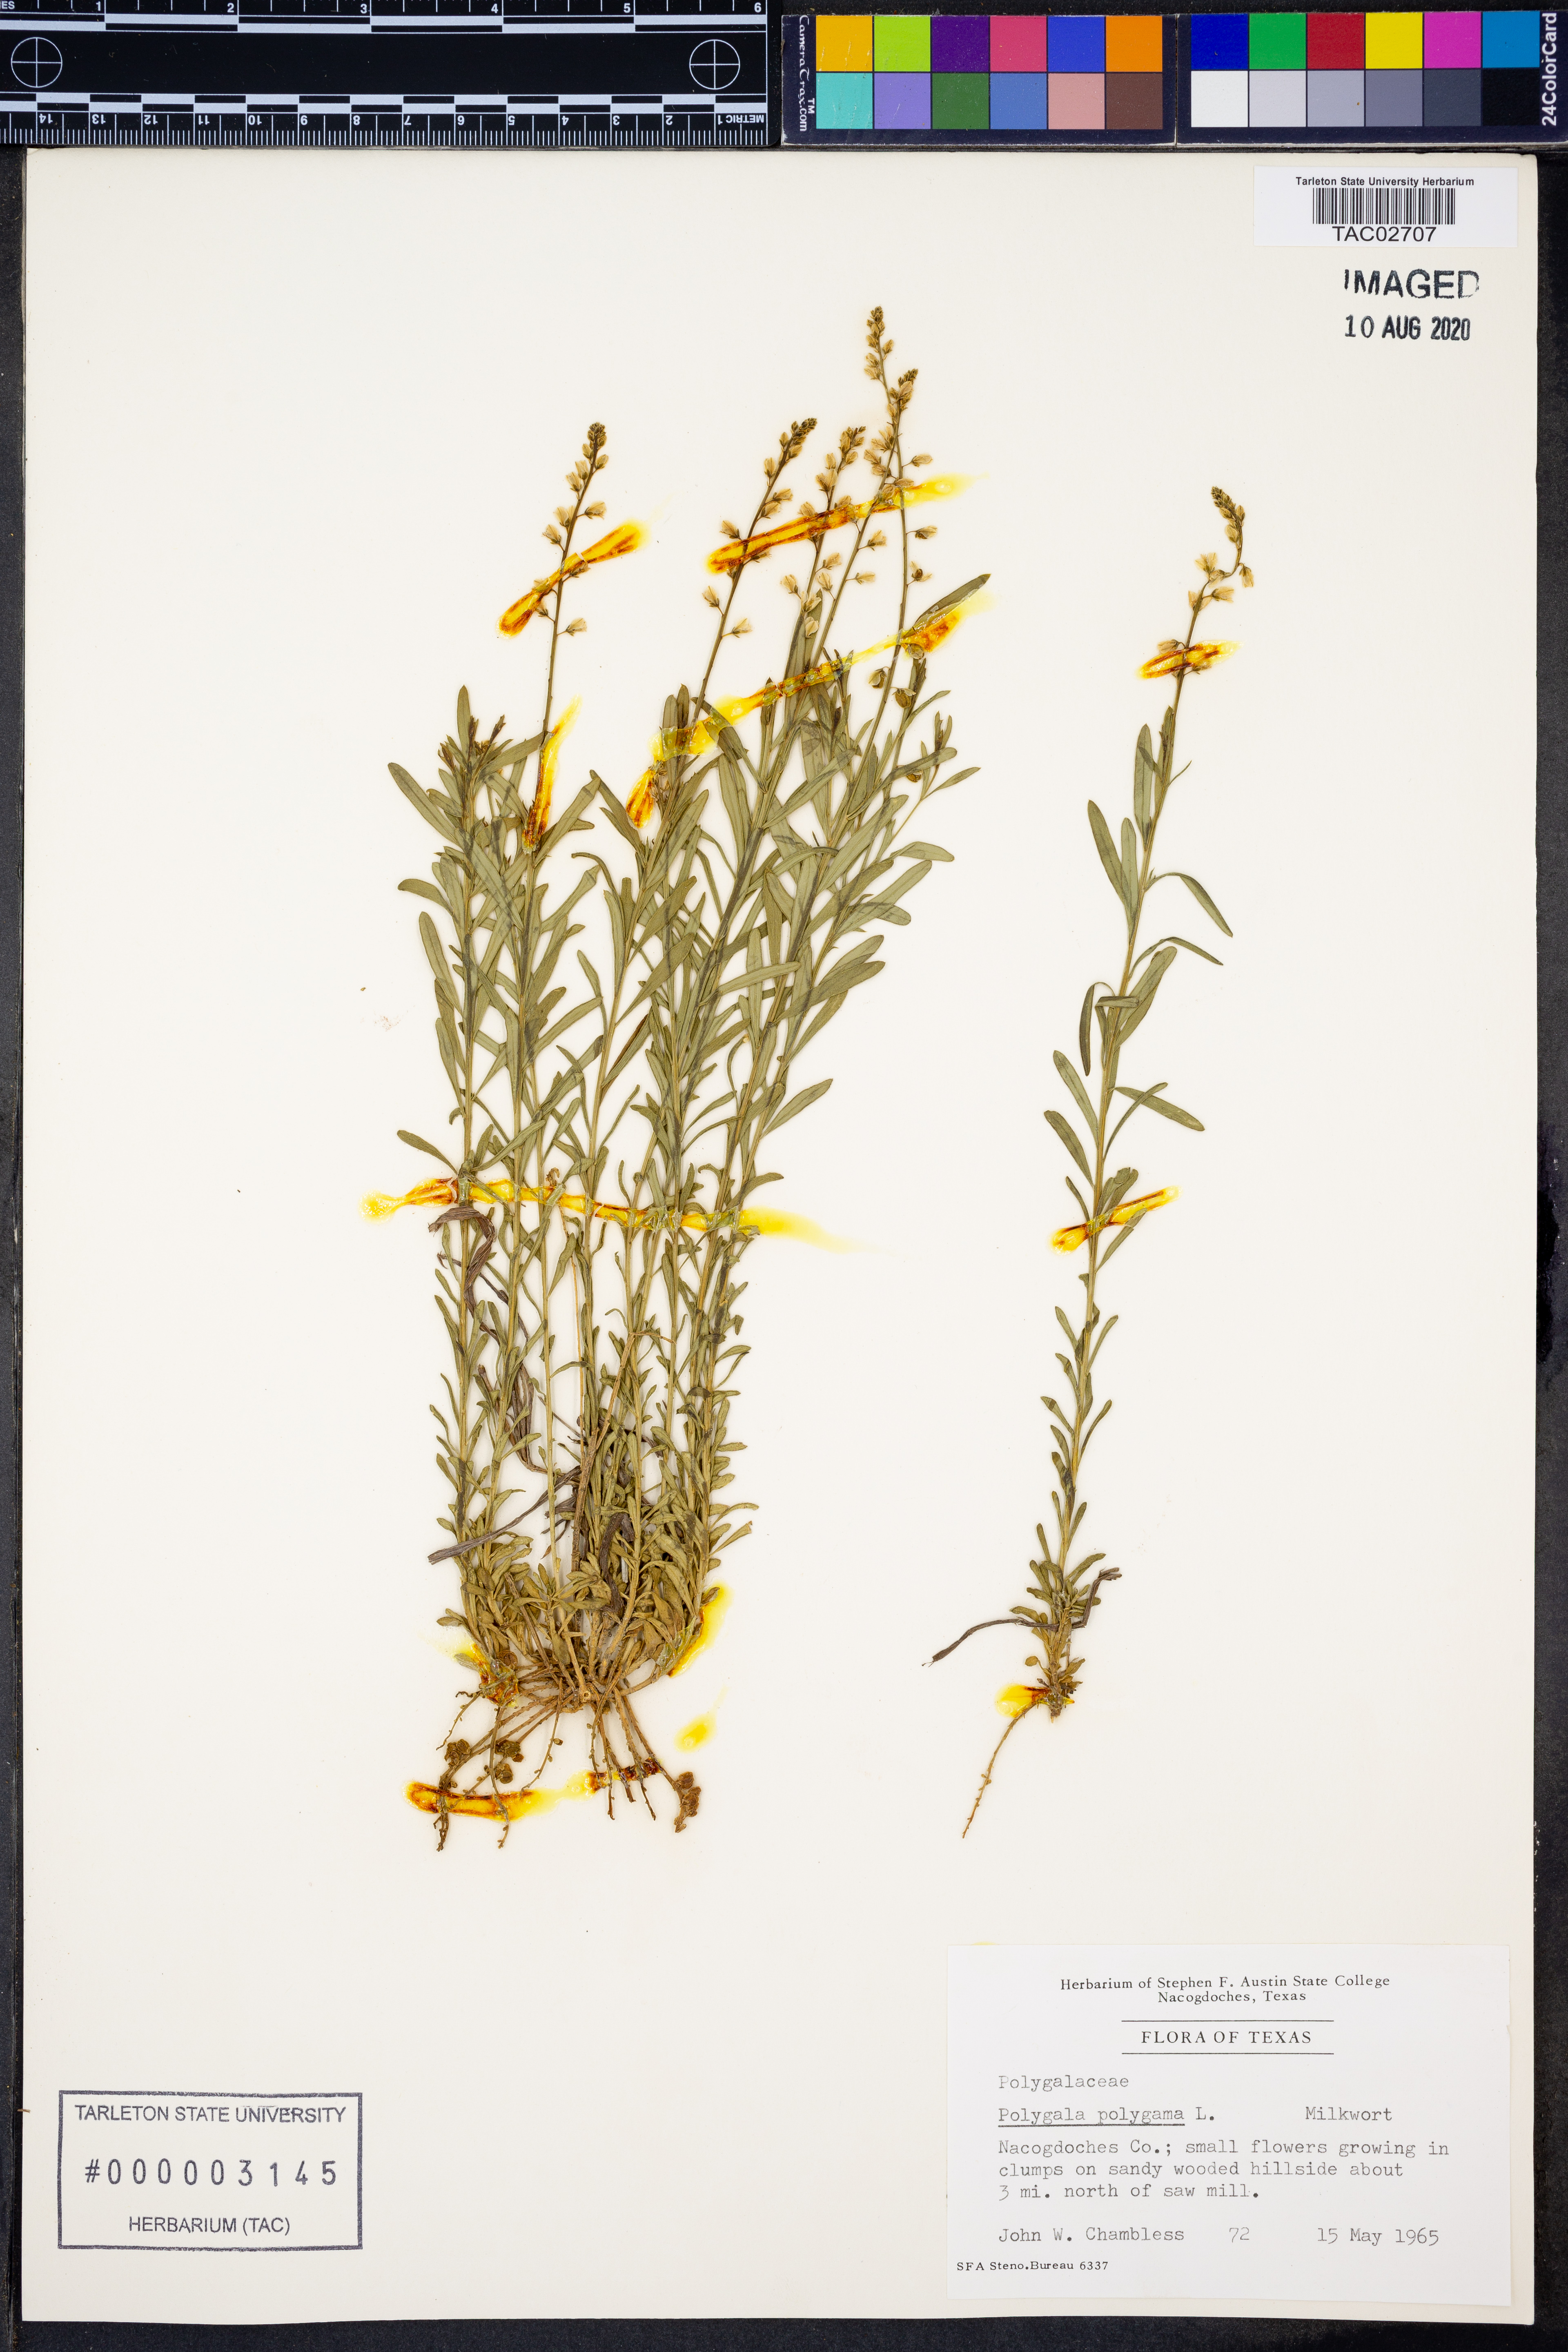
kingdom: Plantae
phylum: Tracheophyta
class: Magnoliopsida
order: Fabales
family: Polygalaceae
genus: Polygala
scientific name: Polygala polygama
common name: Bitter milkwort
